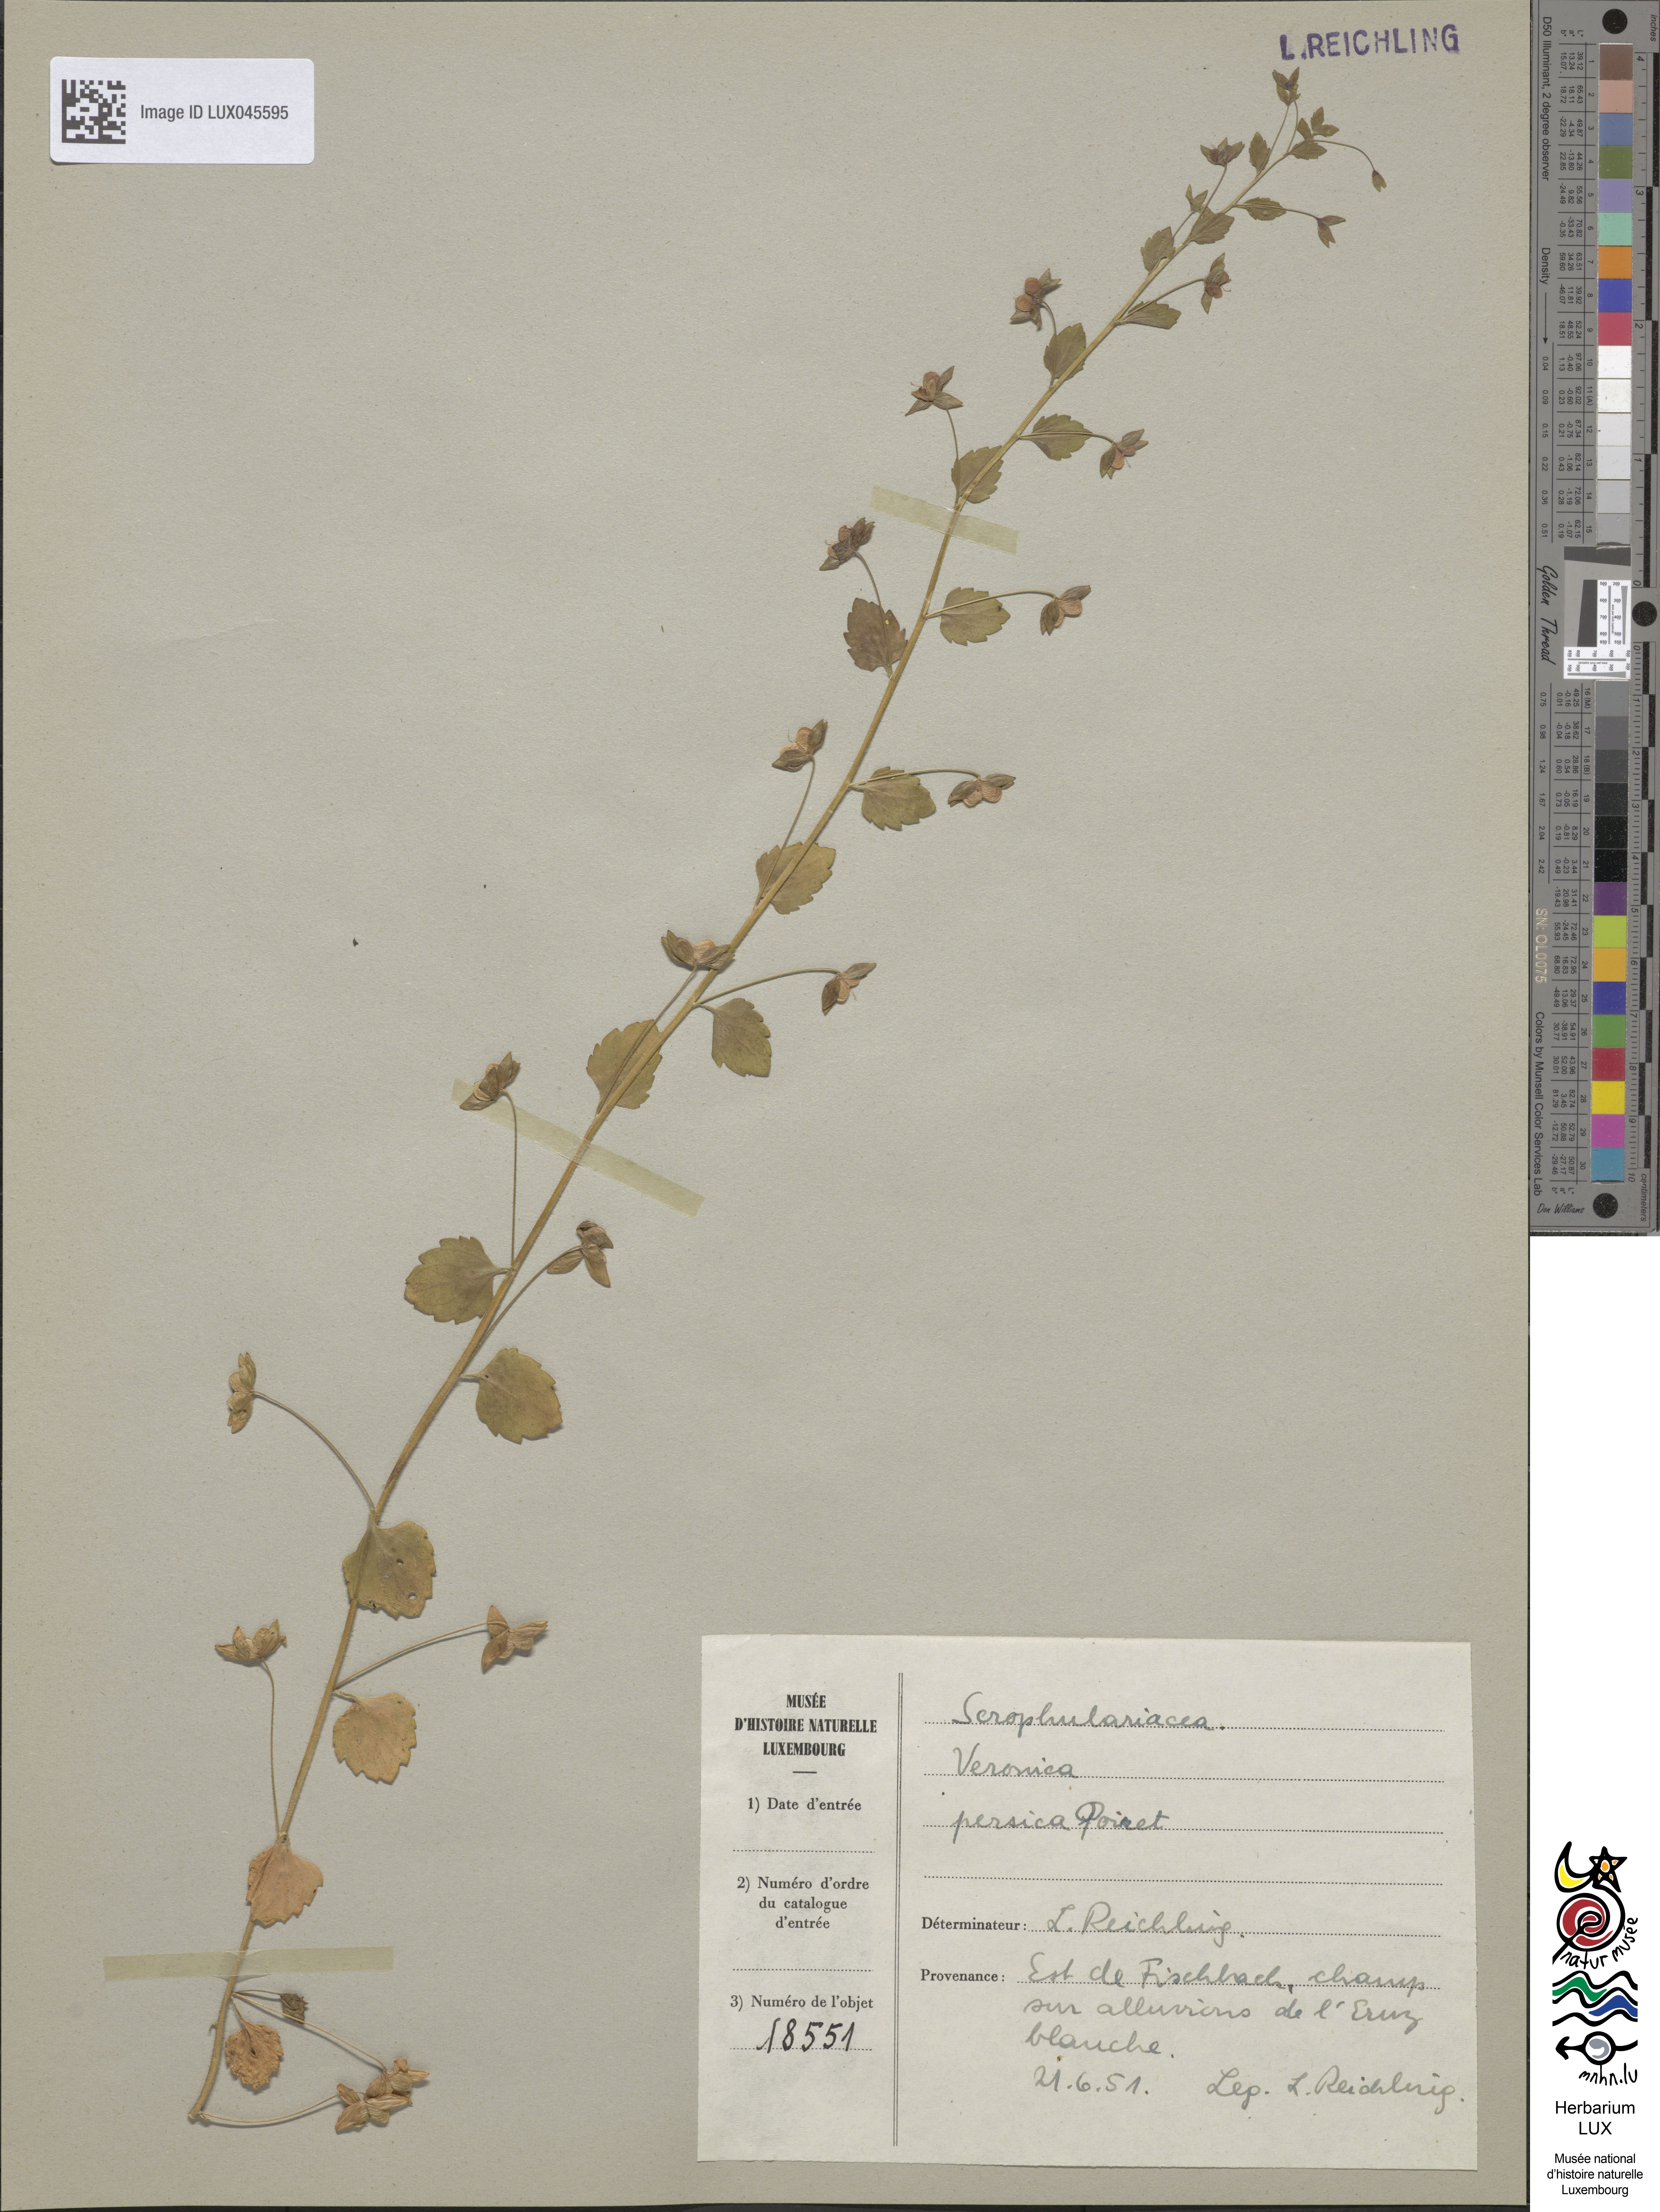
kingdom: Plantae
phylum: Tracheophyta
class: Magnoliopsida
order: Lamiales
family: Plantaginaceae
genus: Veronica
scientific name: Veronica persica
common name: Common field-speedwell
